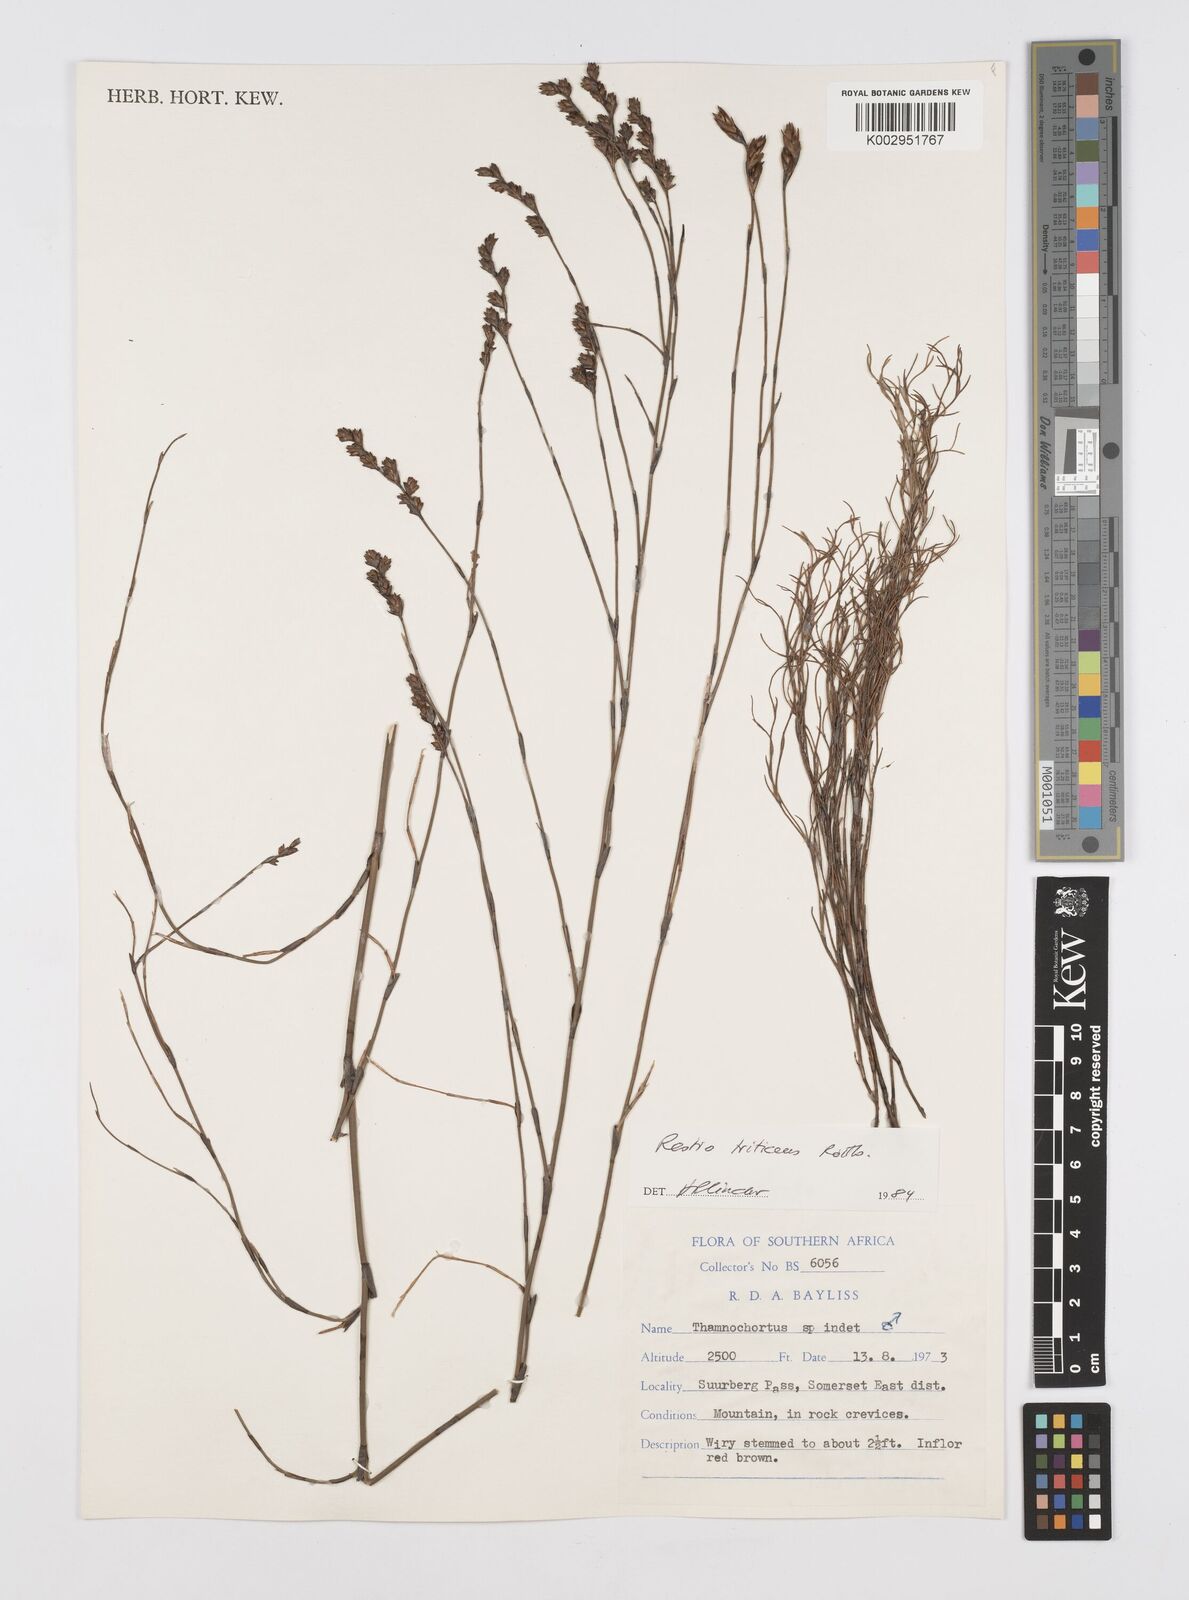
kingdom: Plantae
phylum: Tracheophyta
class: Liliopsida
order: Poales
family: Restionaceae
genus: Restio
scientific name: Restio triticeus
